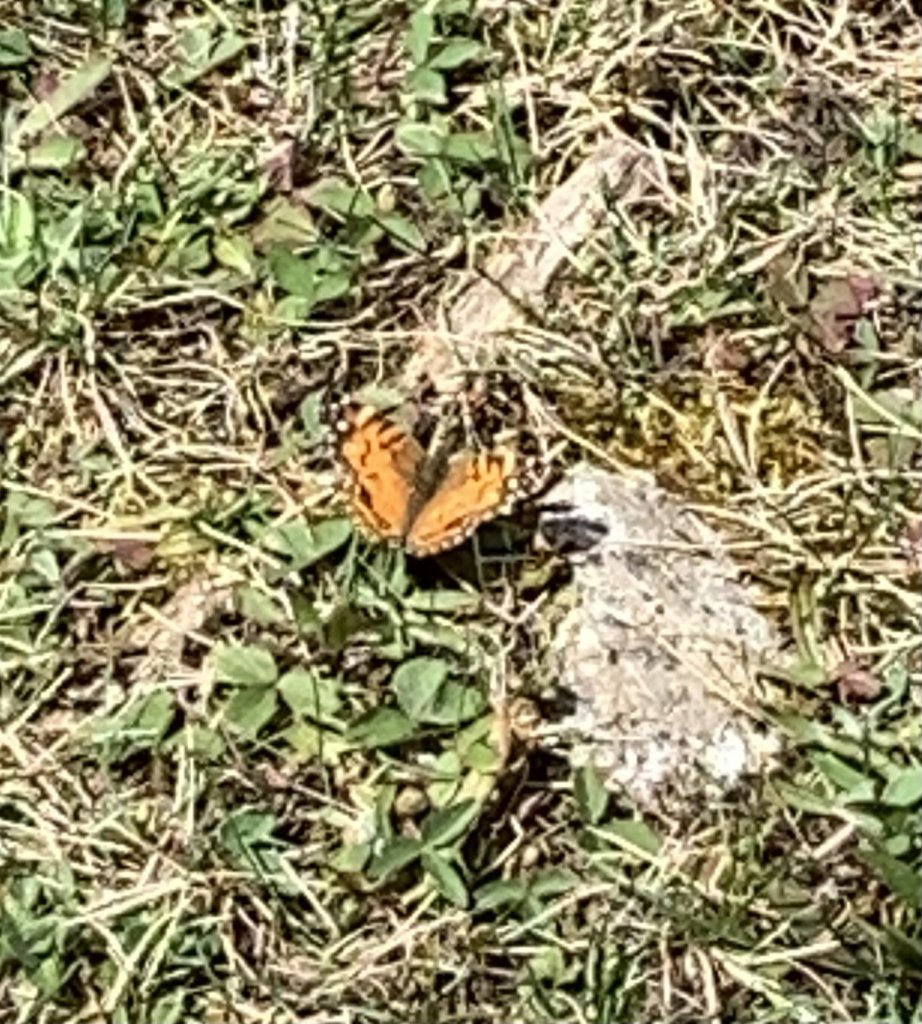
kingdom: Animalia
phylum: Arthropoda
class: Insecta
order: Lepidoptera
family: Nymphalidae
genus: Vanessa
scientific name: Vanessa virginiensis
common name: American Lady
